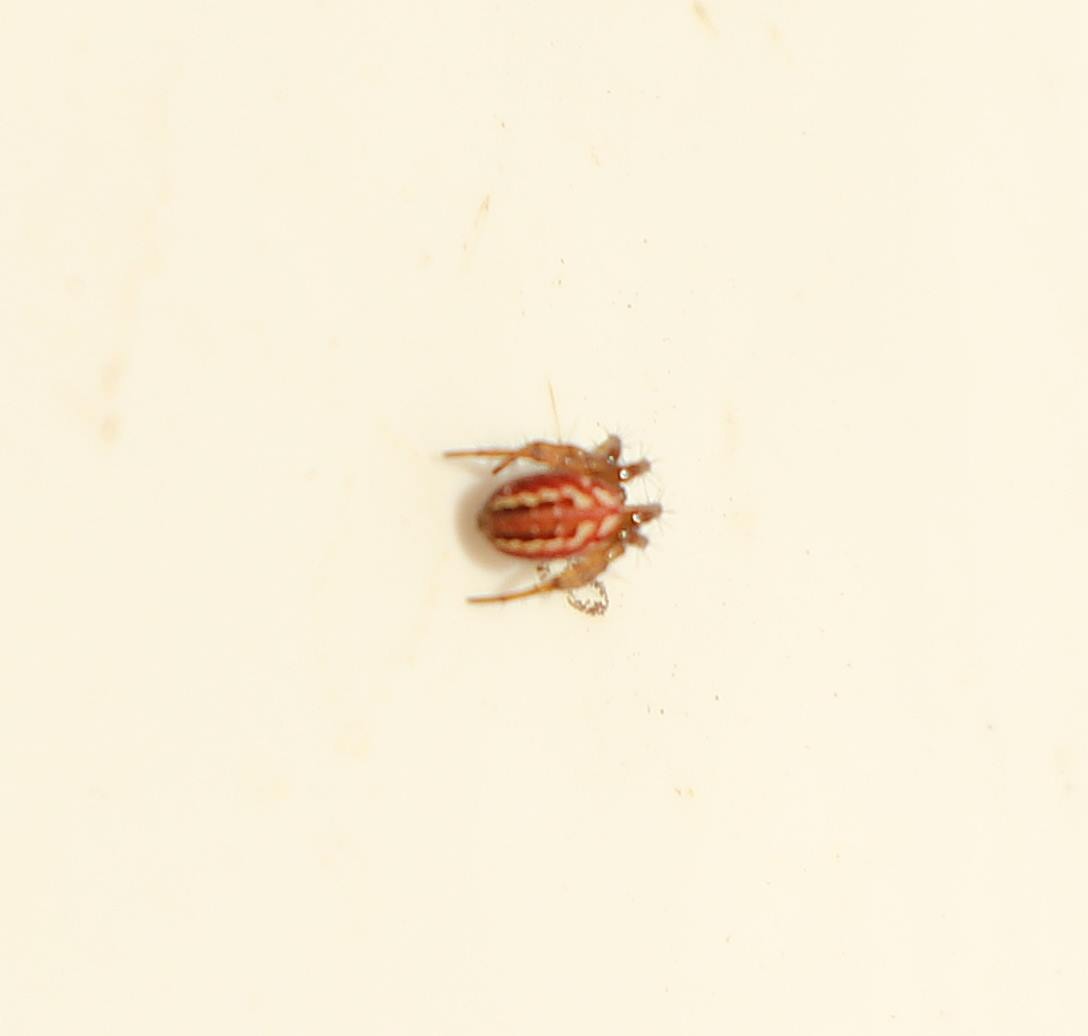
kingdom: Animalia
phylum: Arthropoda
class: Arachnida
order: Araneae
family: Araneidae
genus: Mangora
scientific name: Mangora acalypha
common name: Sortstribet hedehjulspinder
